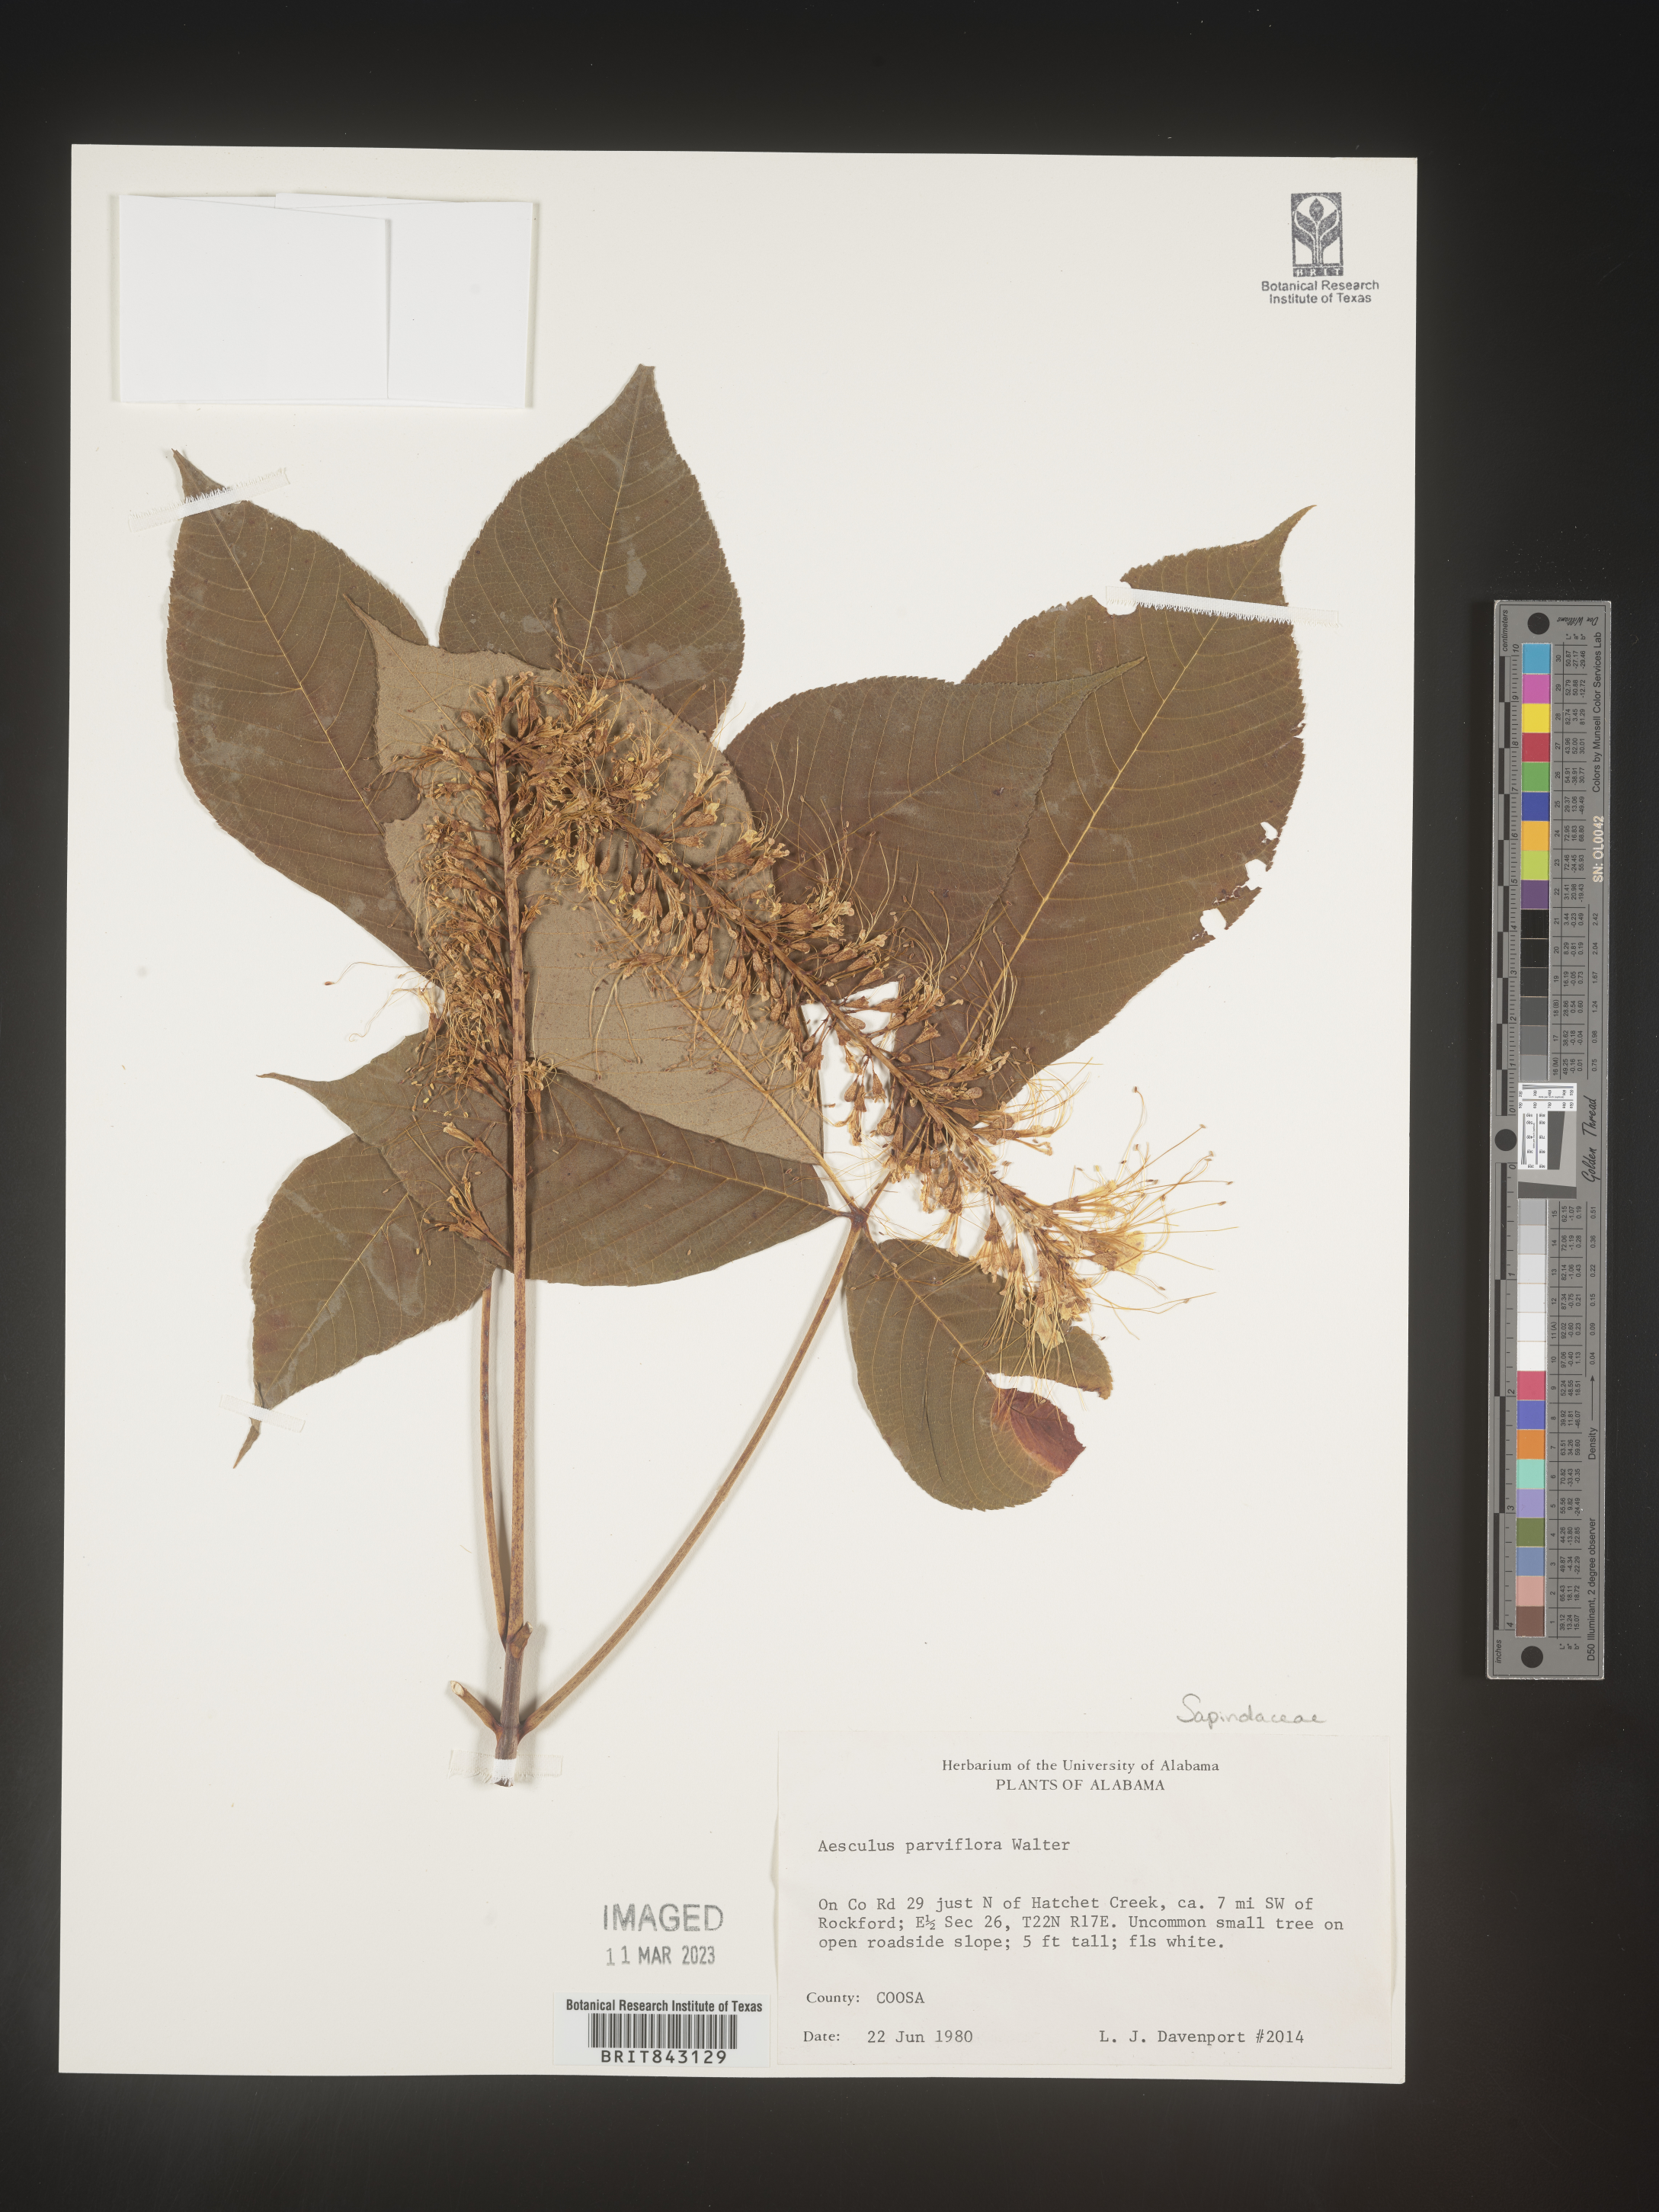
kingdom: Plantae
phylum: Tracheophyta
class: Magnoliopsida
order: Sapindales
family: Sapindaceae
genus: Aesculus
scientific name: Aesculus
